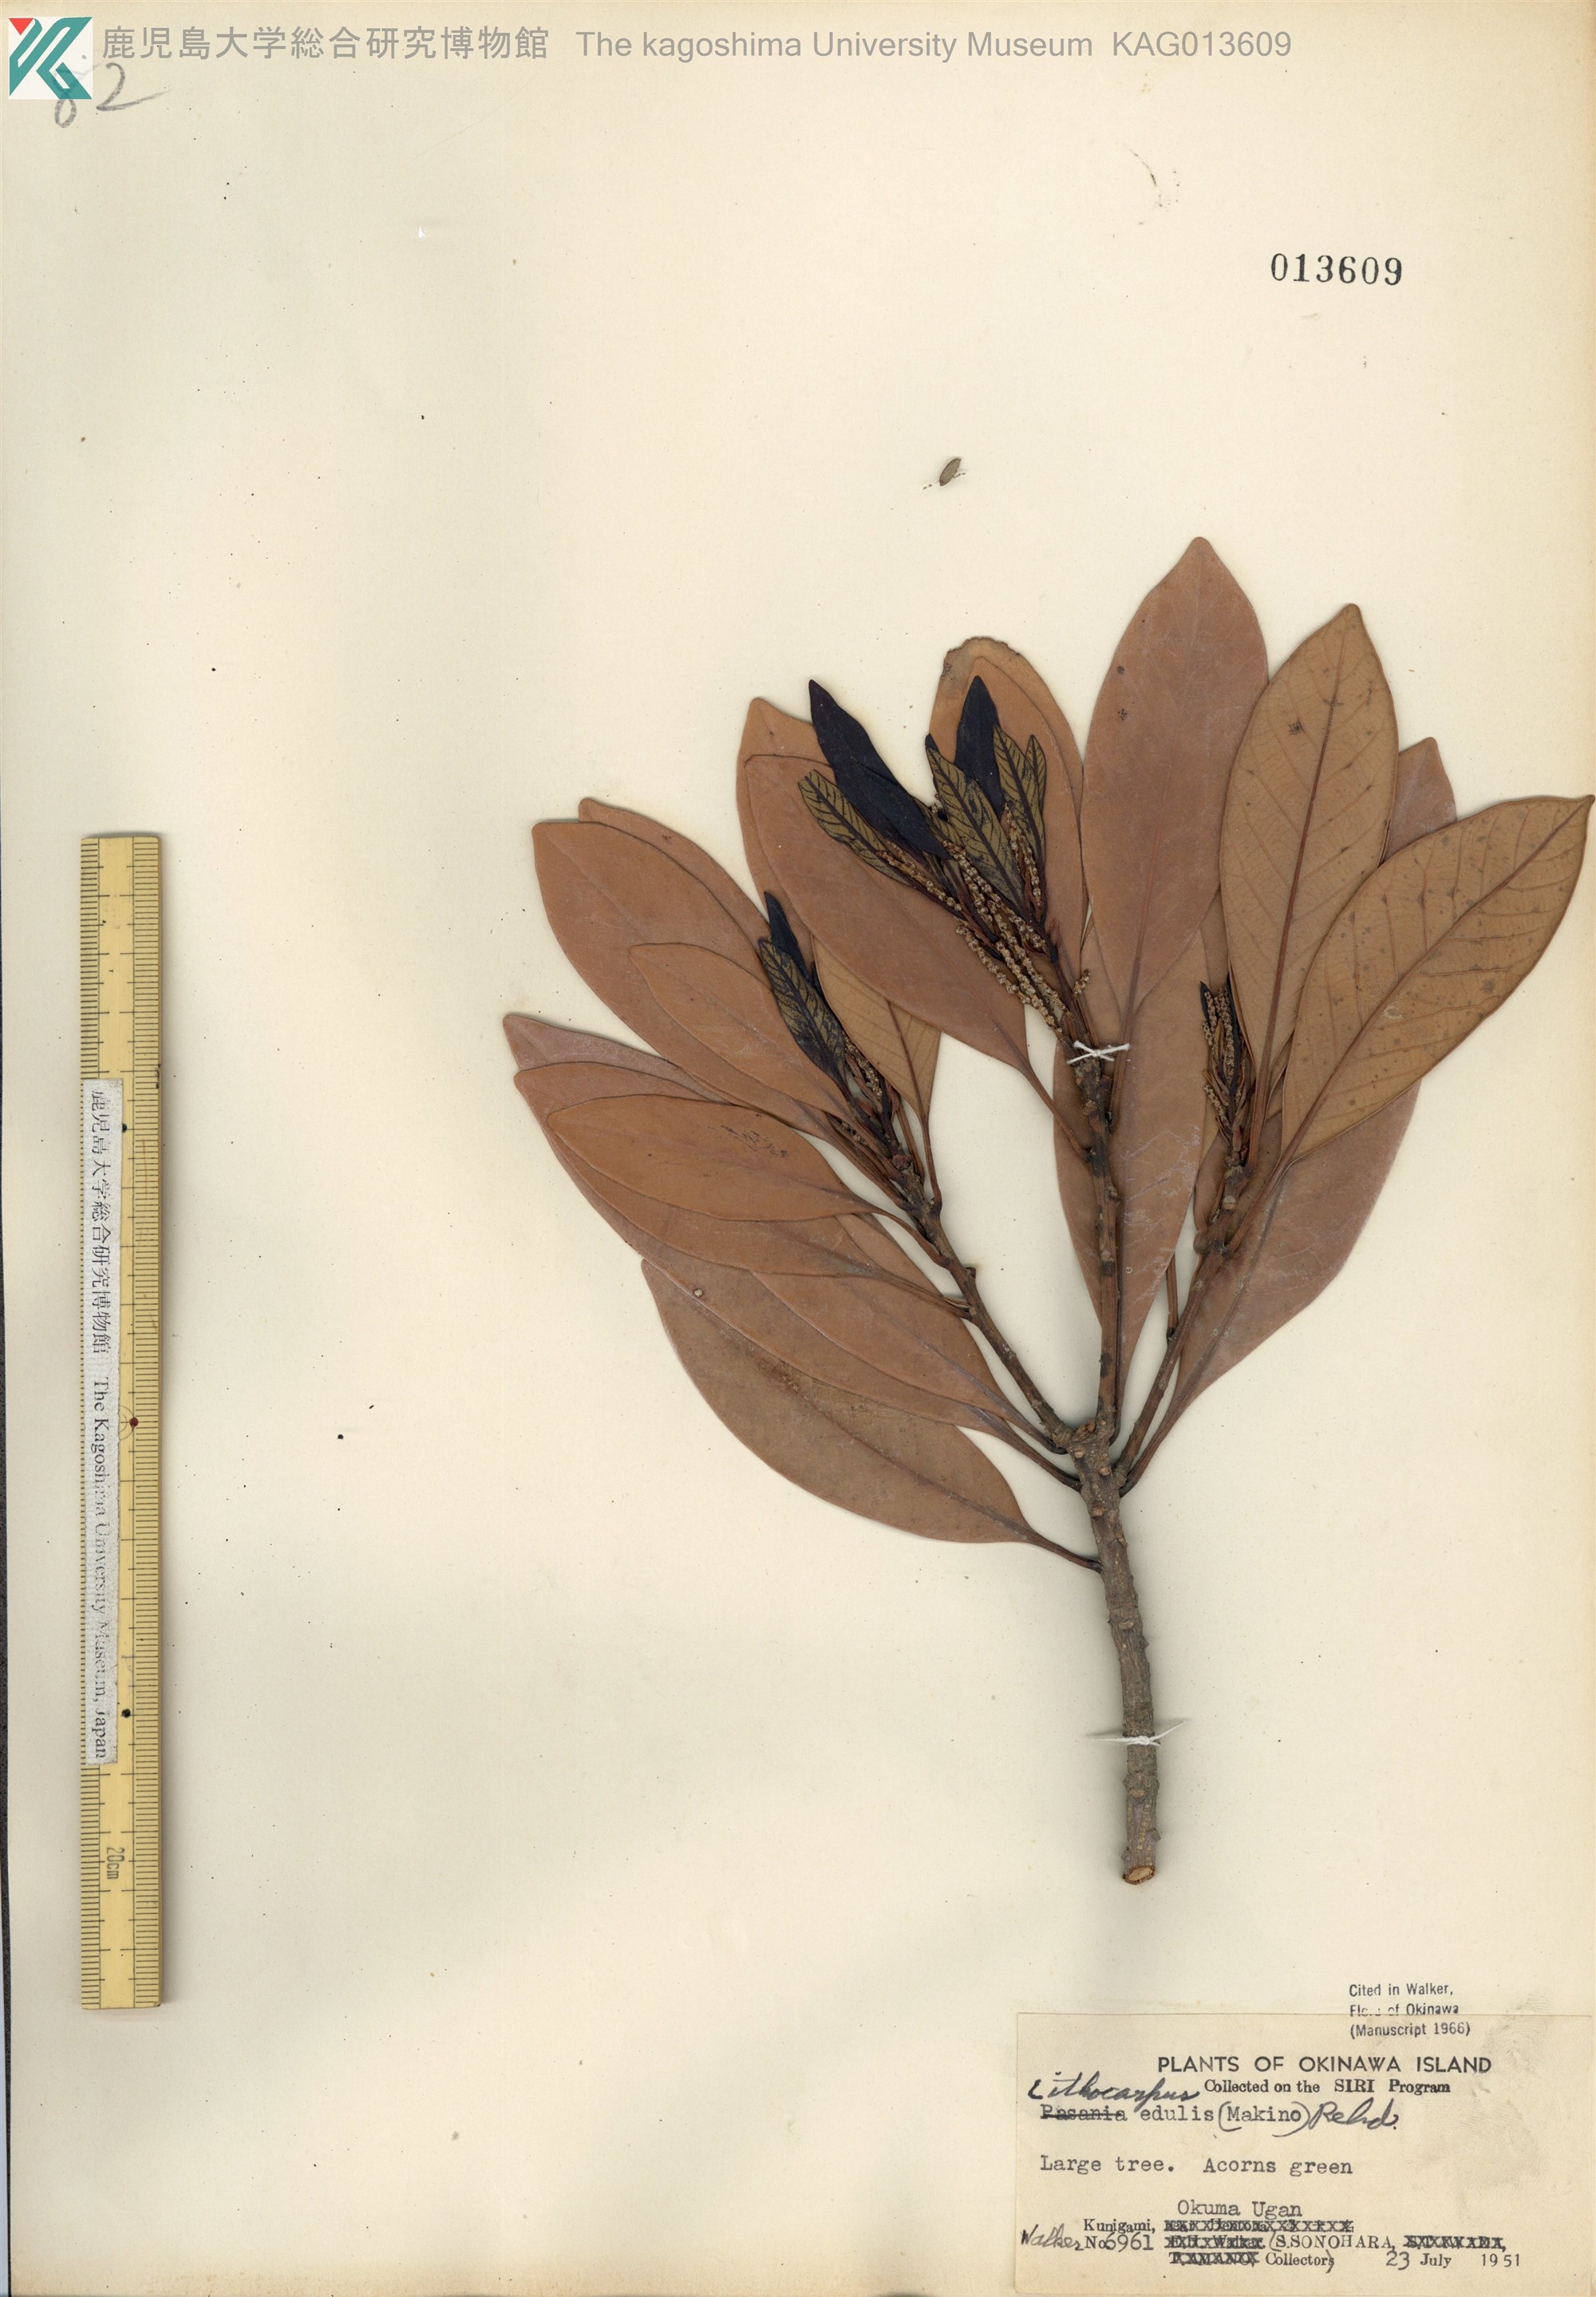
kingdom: Plantae
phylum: Tracheophyta
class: Magnoliopsida
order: Fagales
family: Fagaceae
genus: Lithocarpus
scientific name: Lithocarpus edulis
